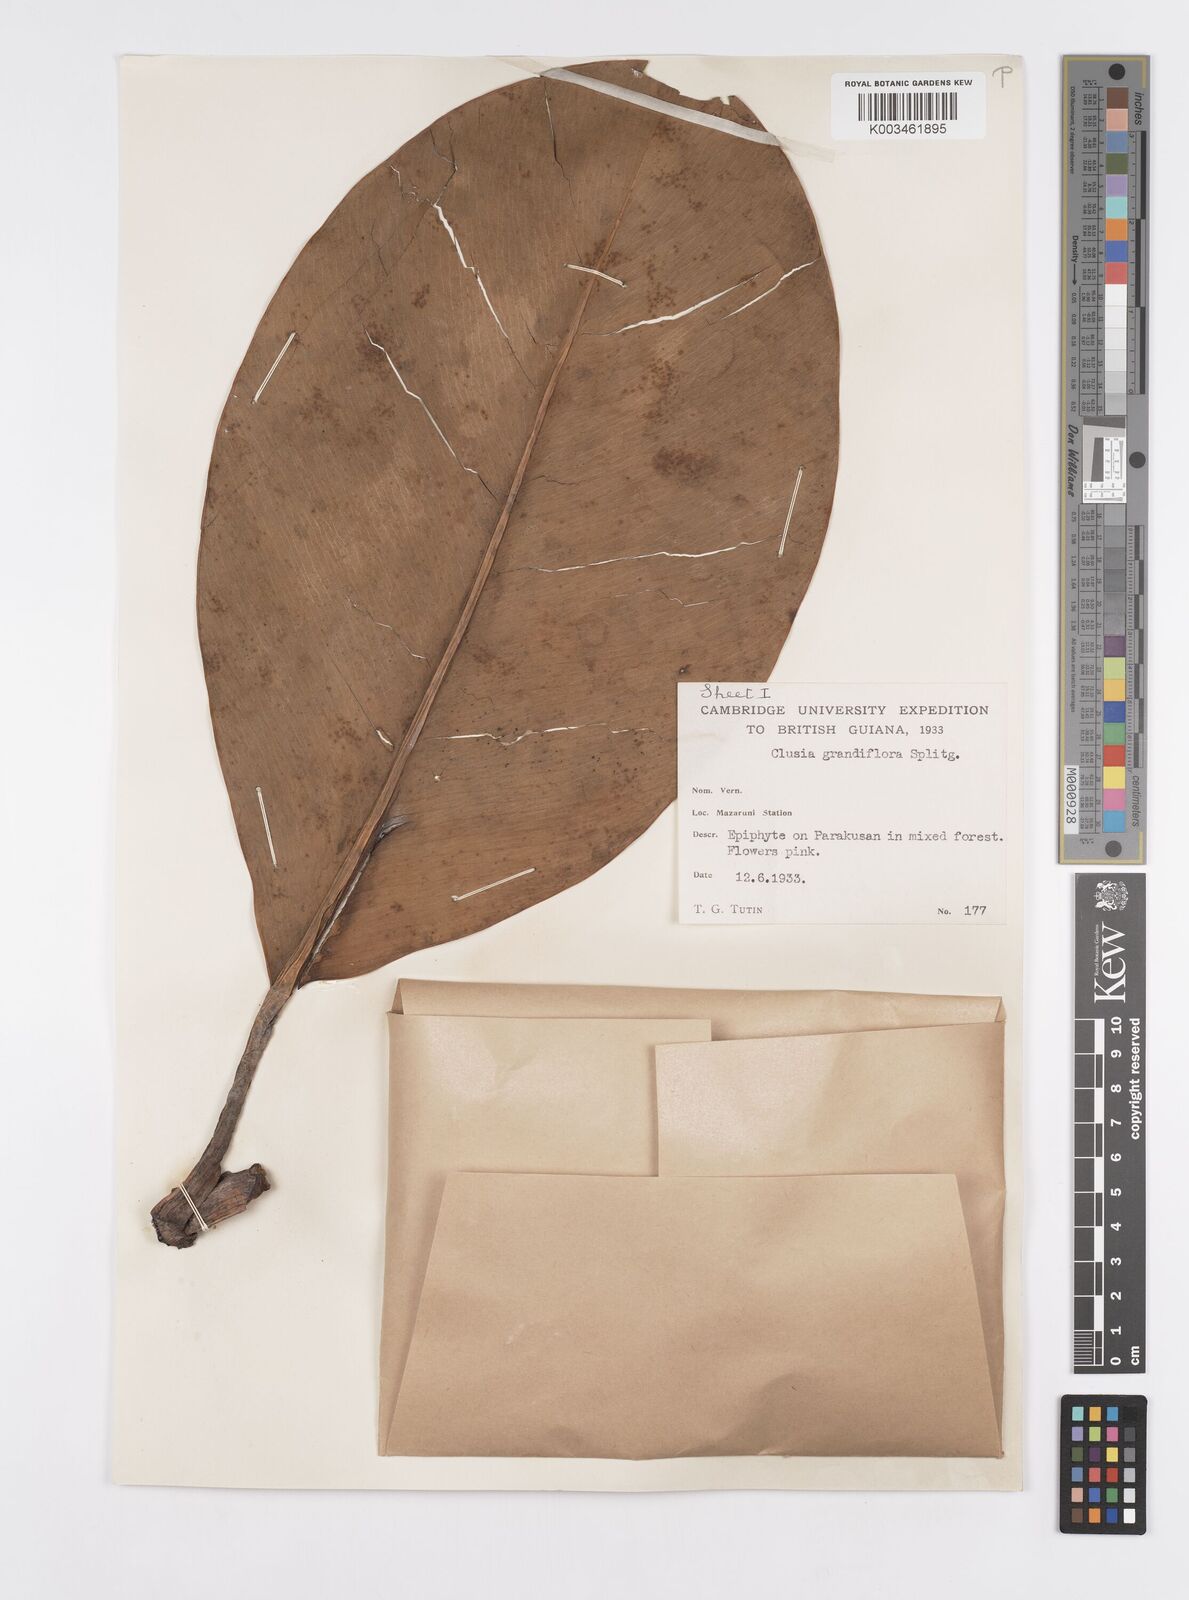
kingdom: Plantae
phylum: Tracheophyta
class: Magnoliopsida
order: Malpighiales
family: Clusiaceae
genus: Clusia
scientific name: Clusia grandiflora
